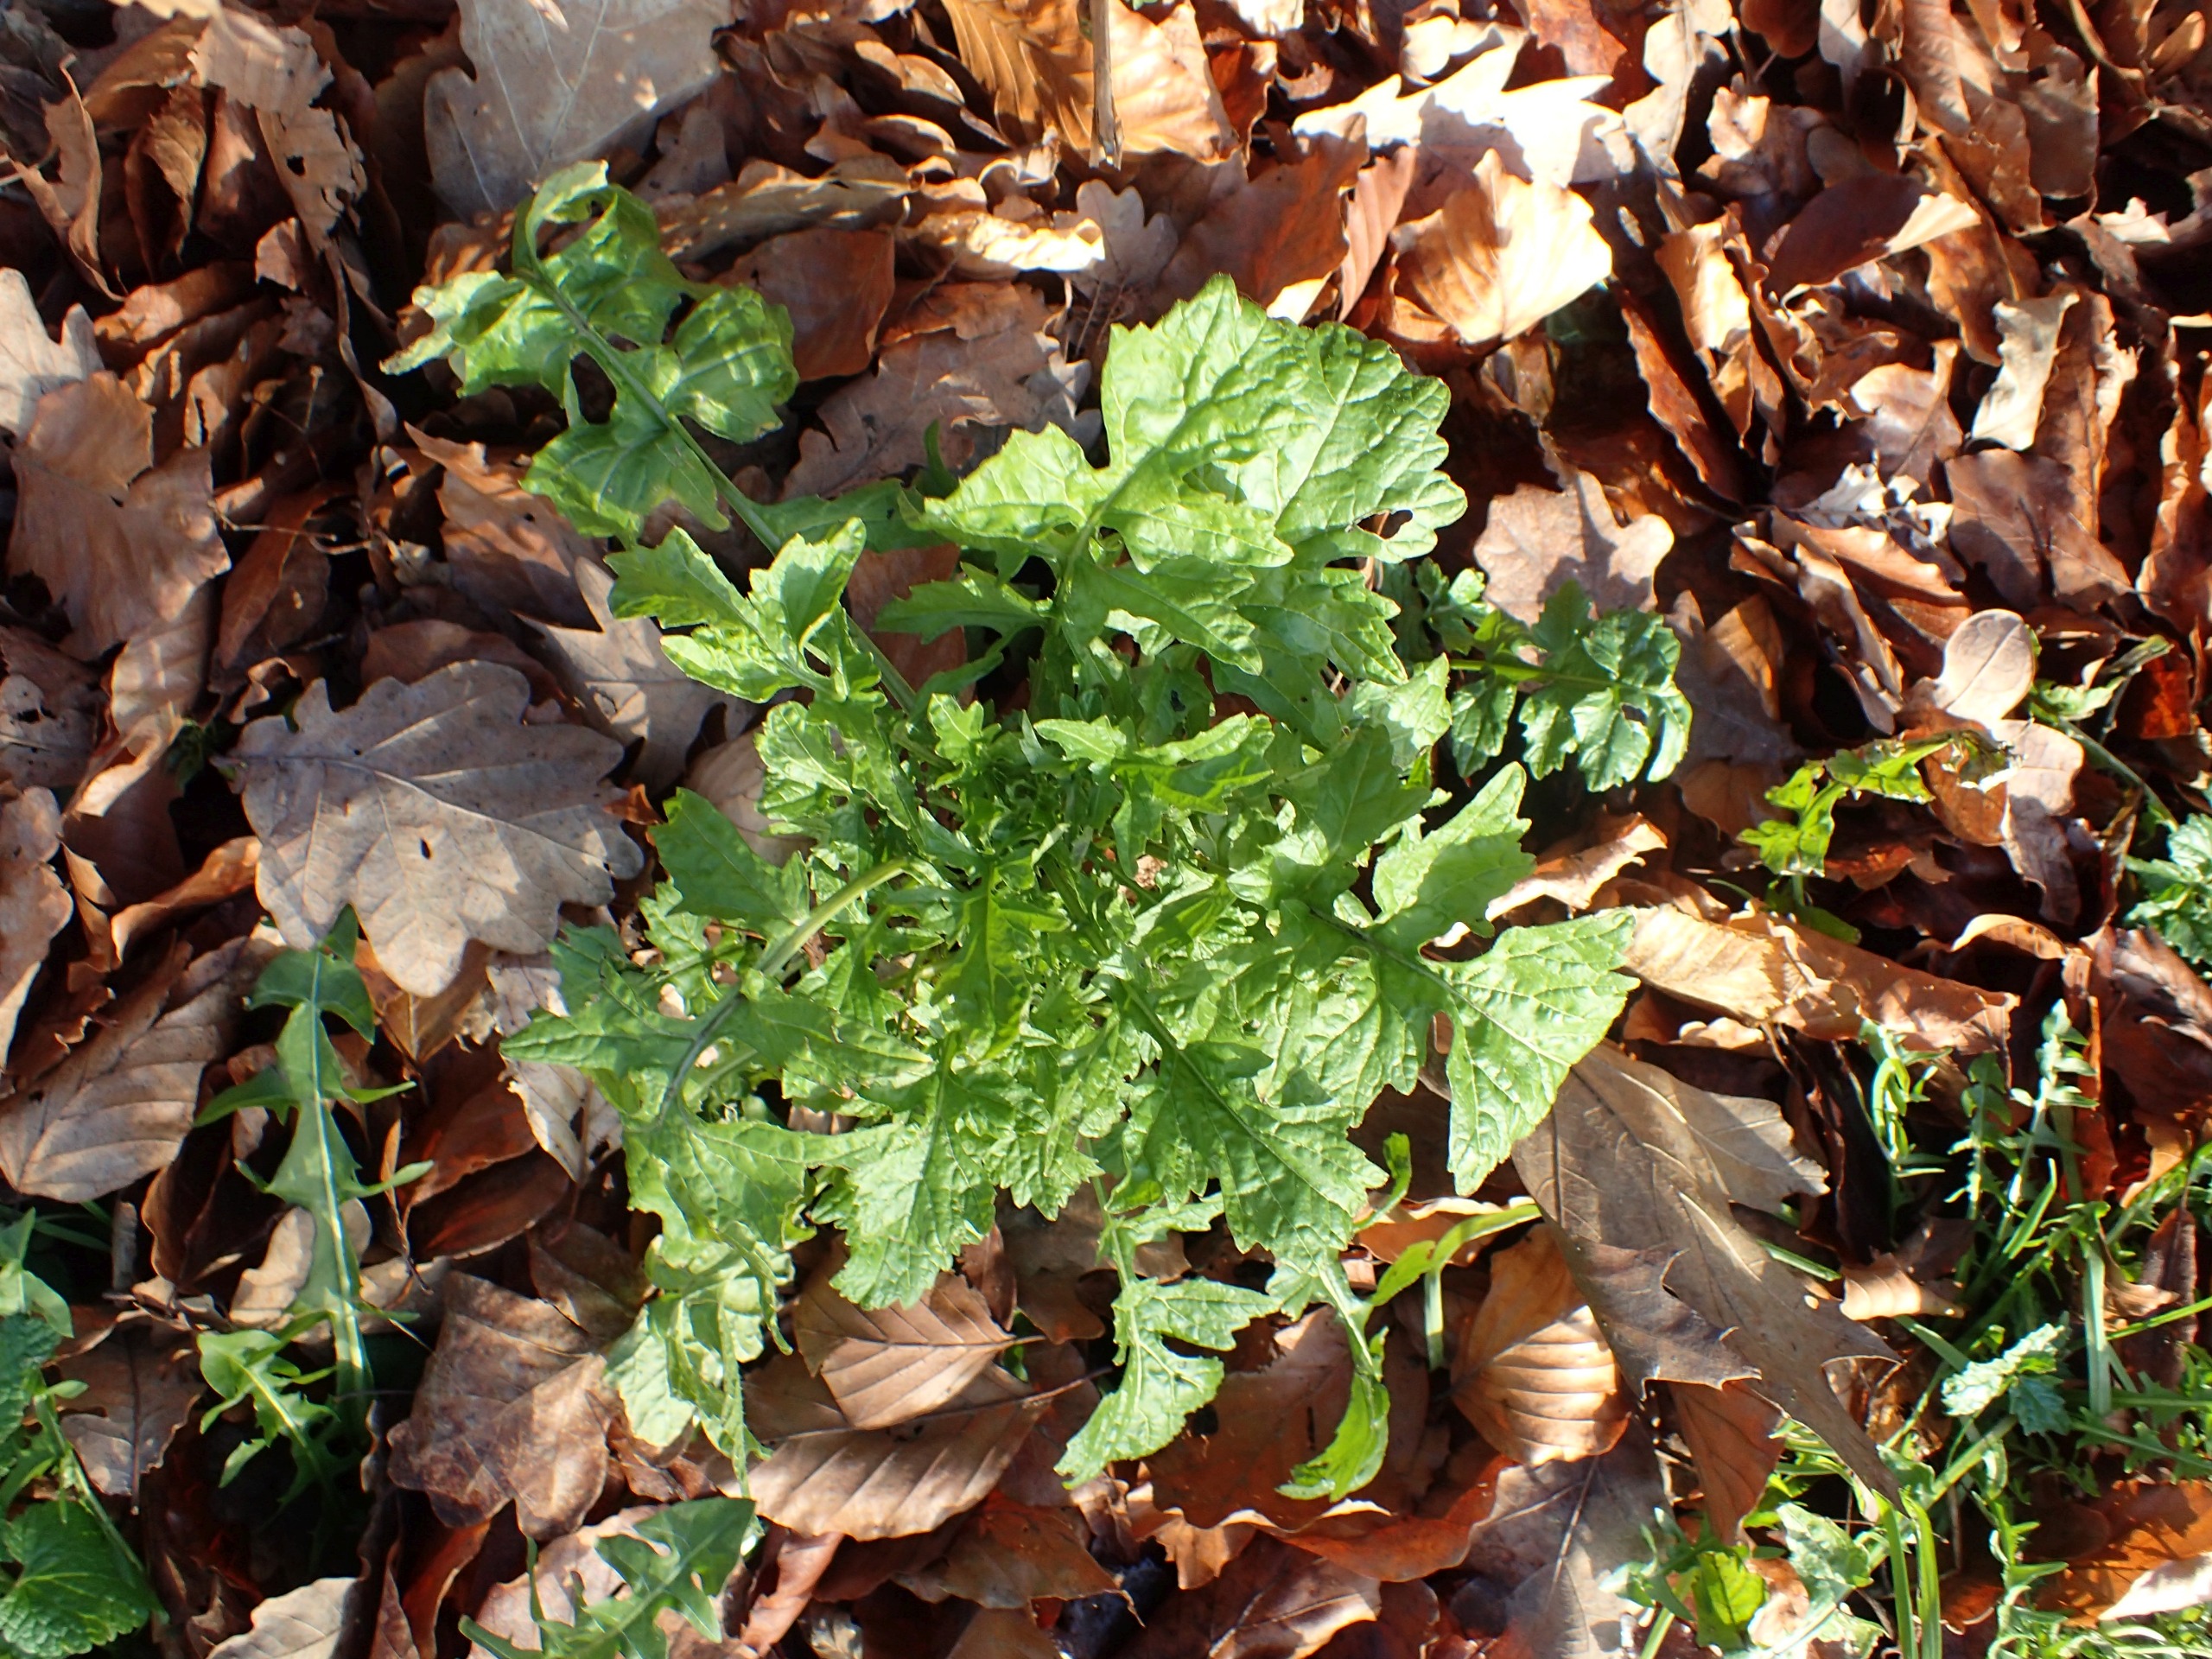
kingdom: Plantae
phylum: Tracheophyta
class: Magnoliopsida
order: Brassicales
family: Brassicaceae
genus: Sisymbrium
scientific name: Sisymbrium officinale
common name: Rank vejsennep
